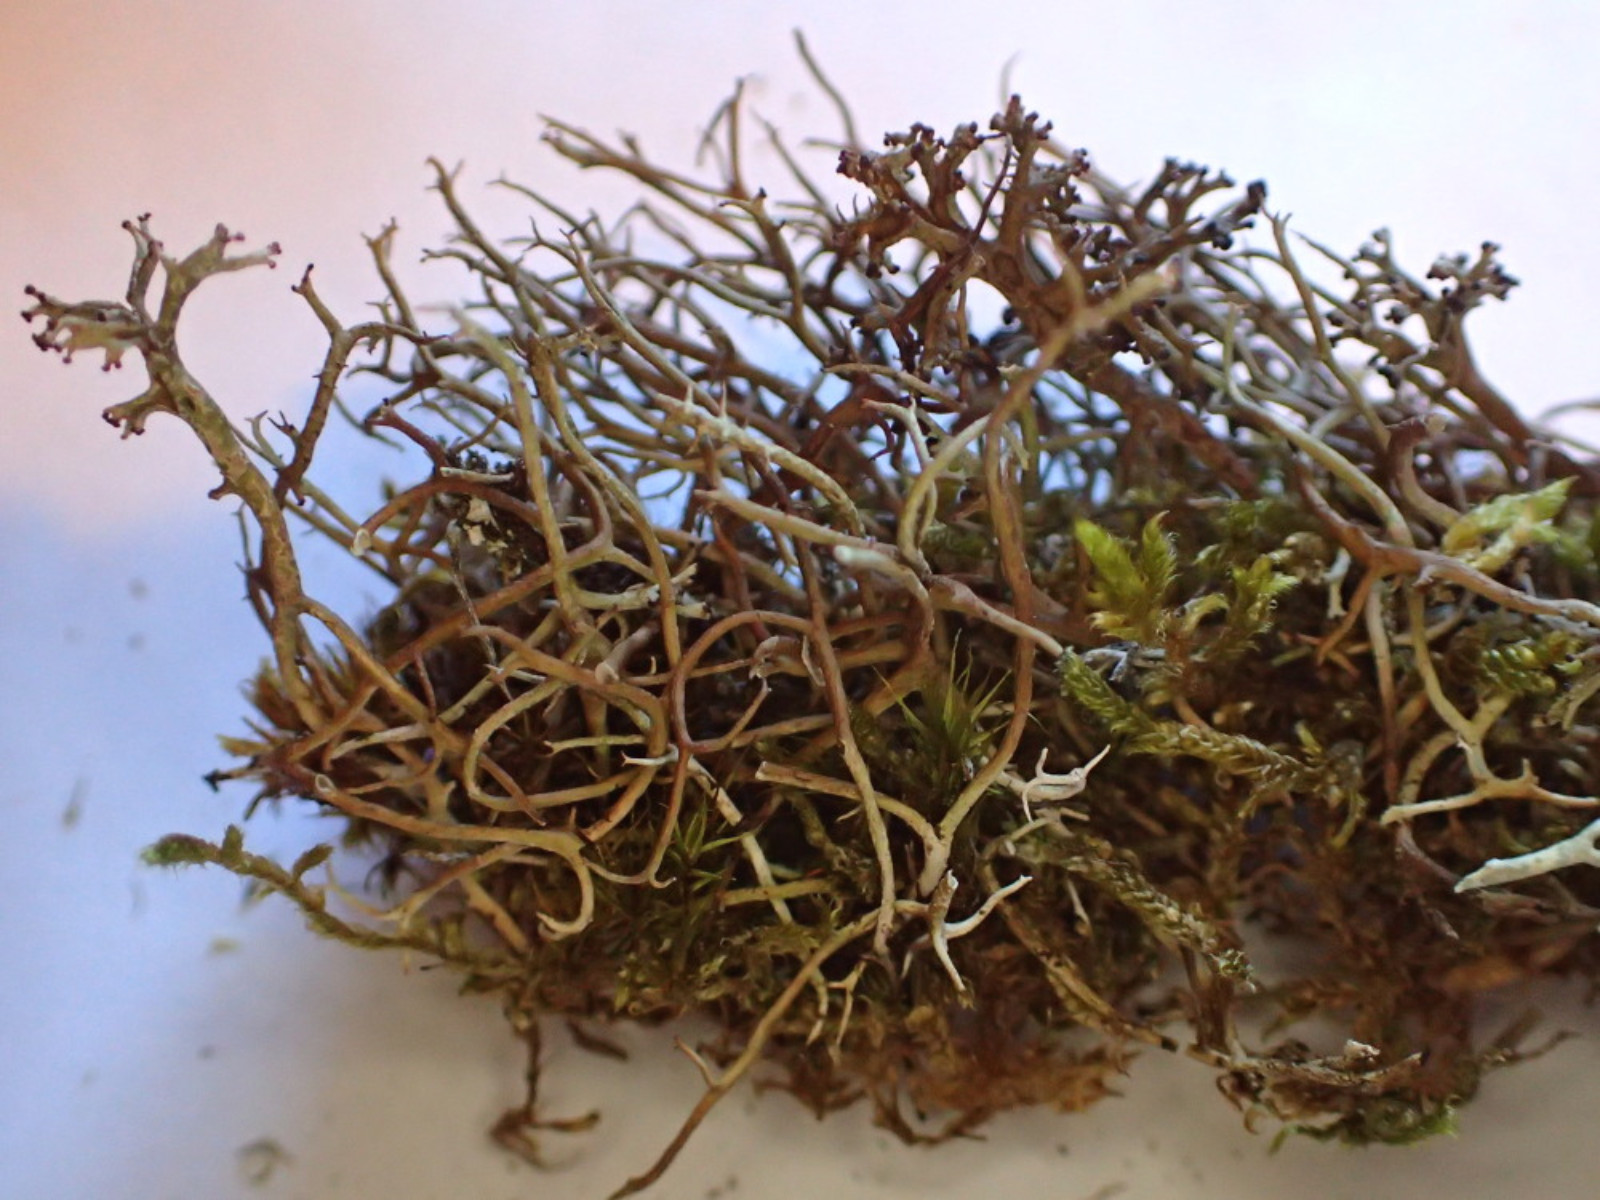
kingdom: Fungi
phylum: Ascomycota
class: Lecanoromycetes
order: Lecanorales
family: Cladoniaceae
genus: Cladonia
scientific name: Cladonia furcata
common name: kløftet bægerlav
